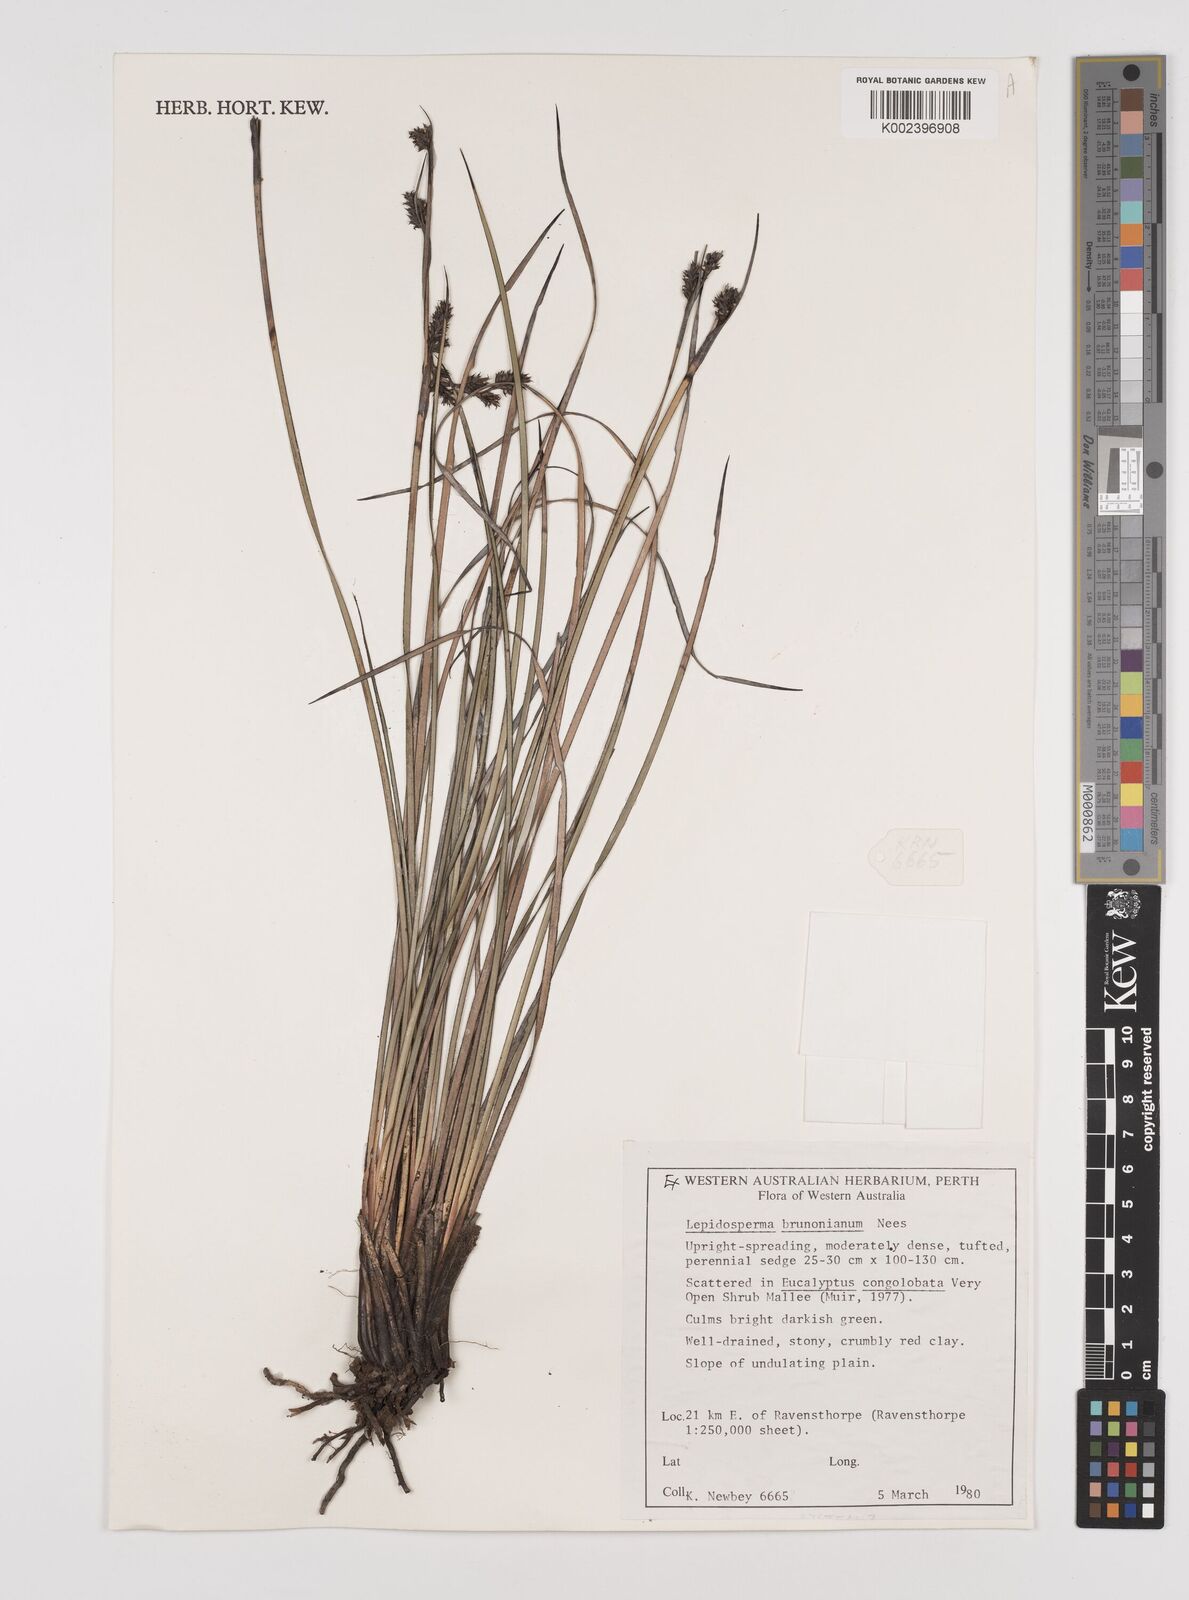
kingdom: Plantae
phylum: Tracheophyta
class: Liliopsida
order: Poales
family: Cyperaceae
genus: Lepidosperma
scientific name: Lepidosperma sieberi
